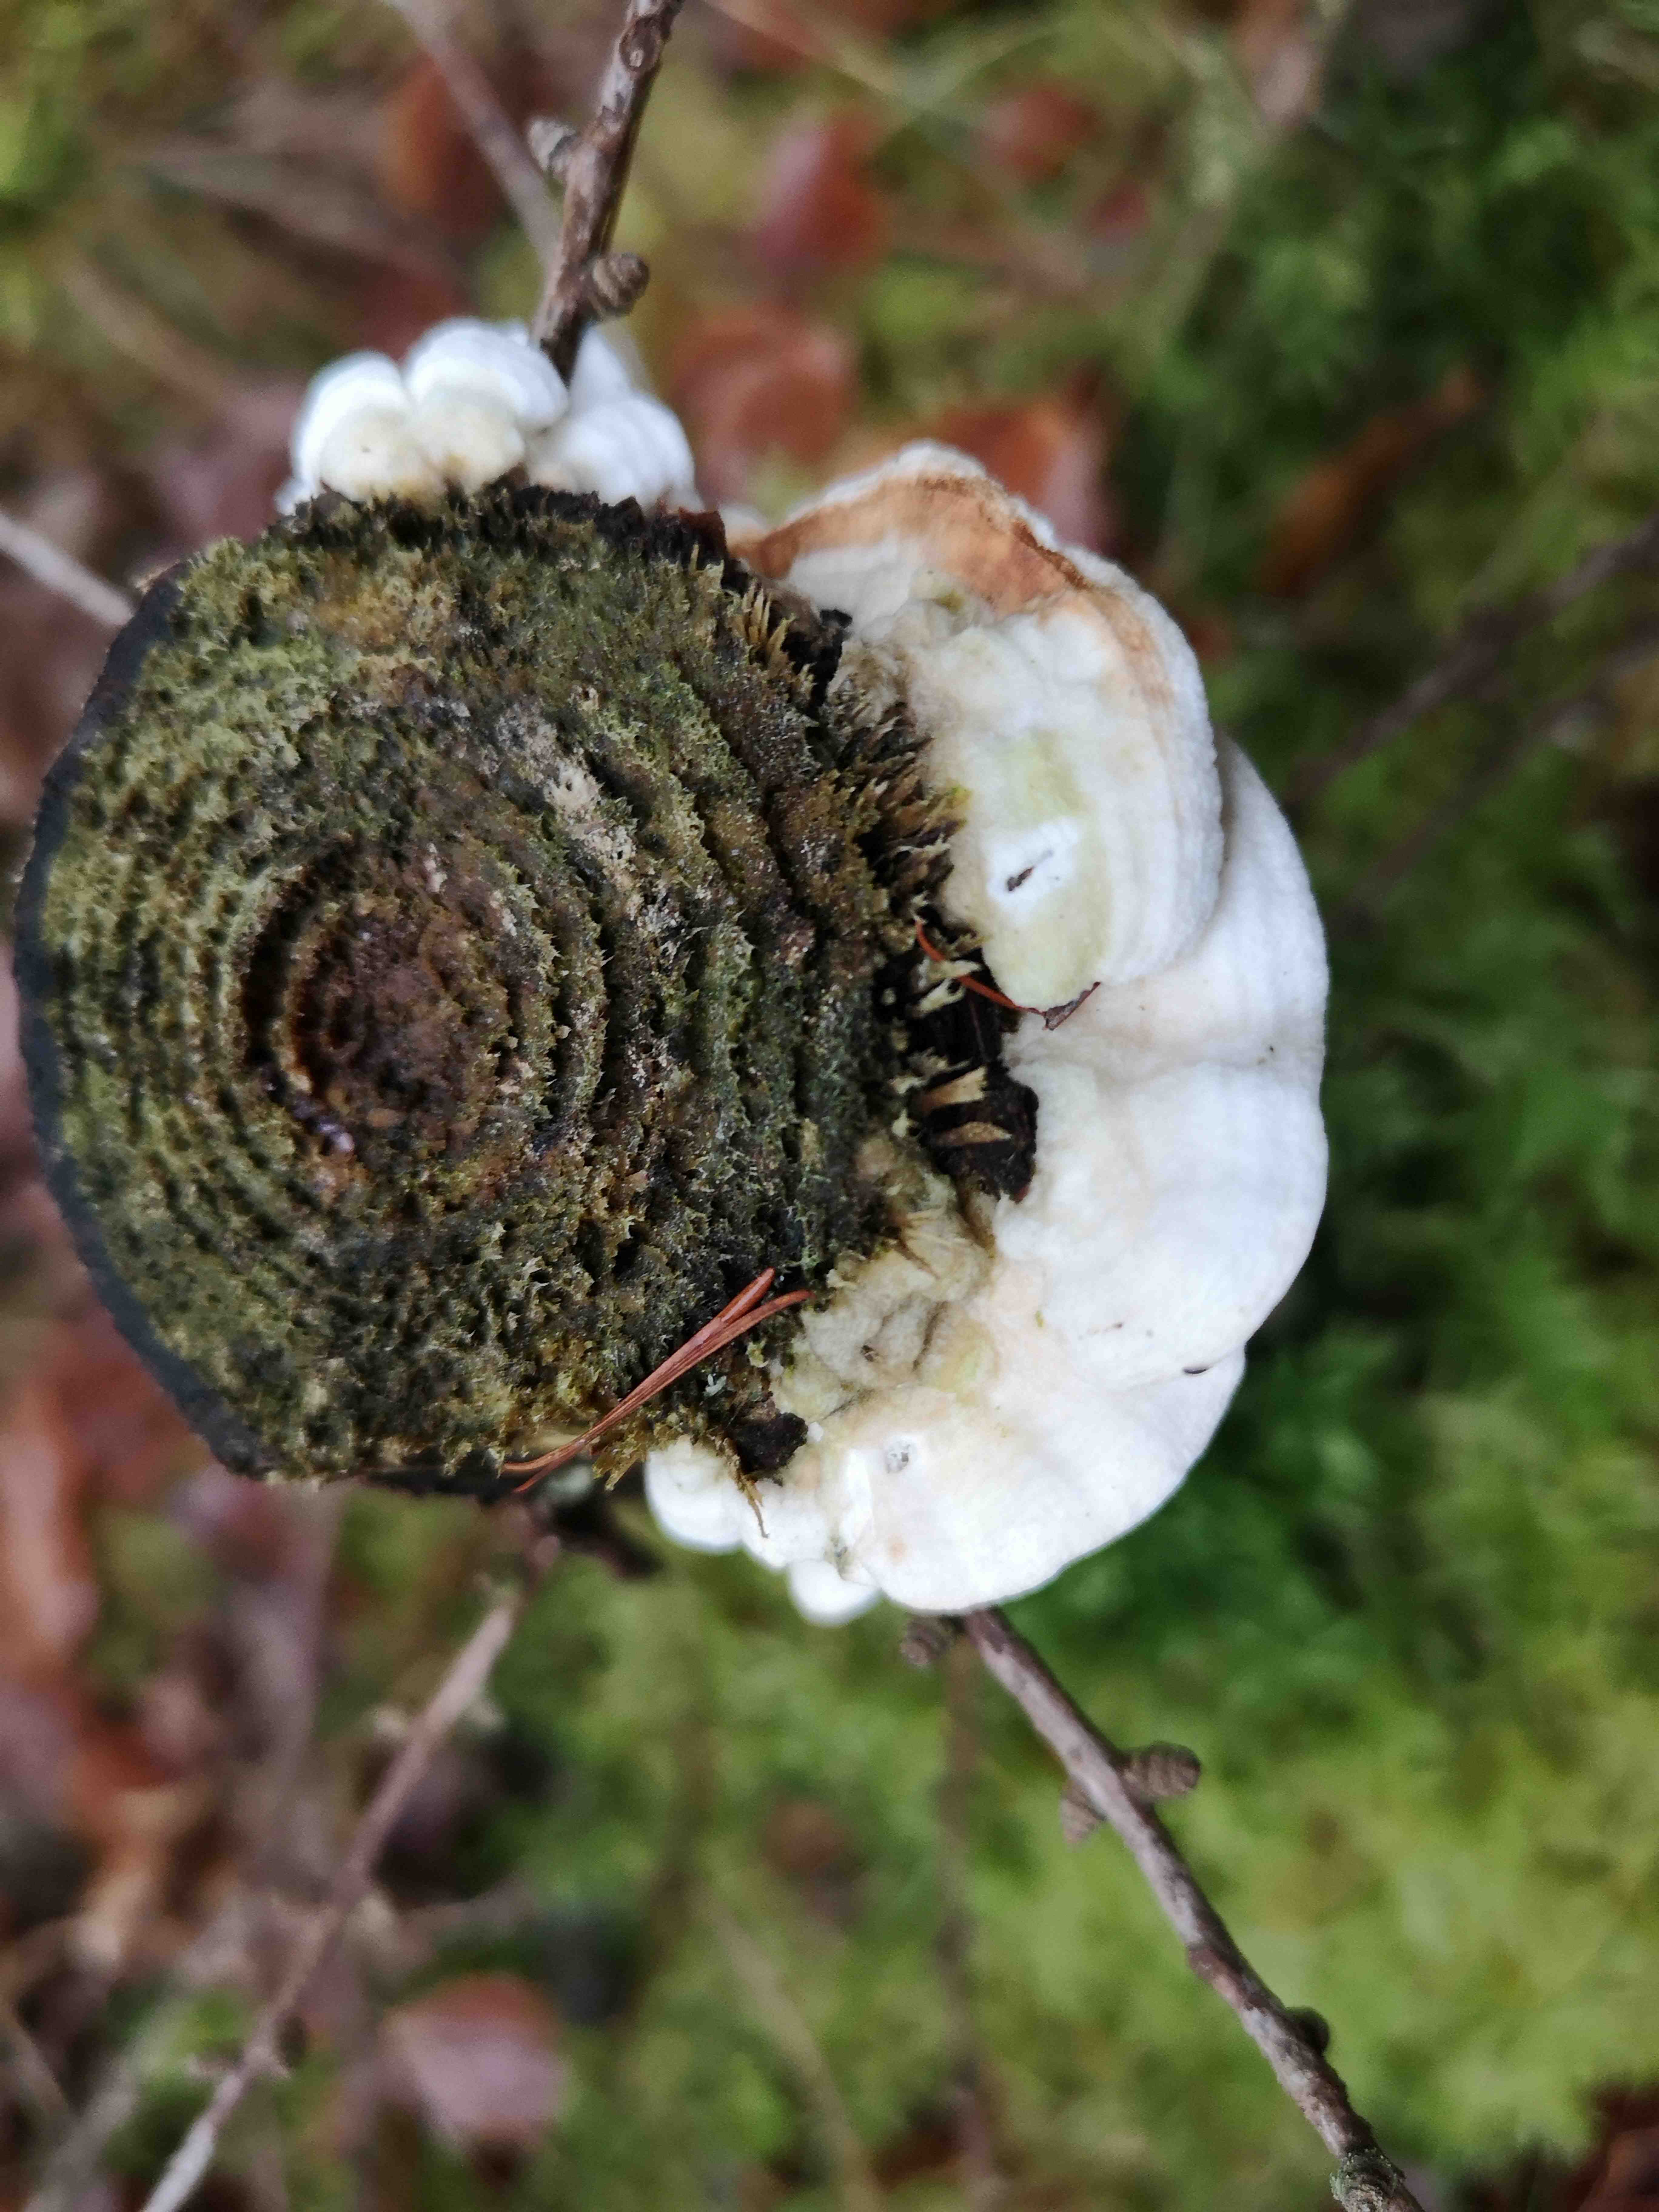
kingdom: Fungi
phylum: Basidiomycota
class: Agaricomycetes
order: Polyporales
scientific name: Polyporales
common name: poresvampordenen
